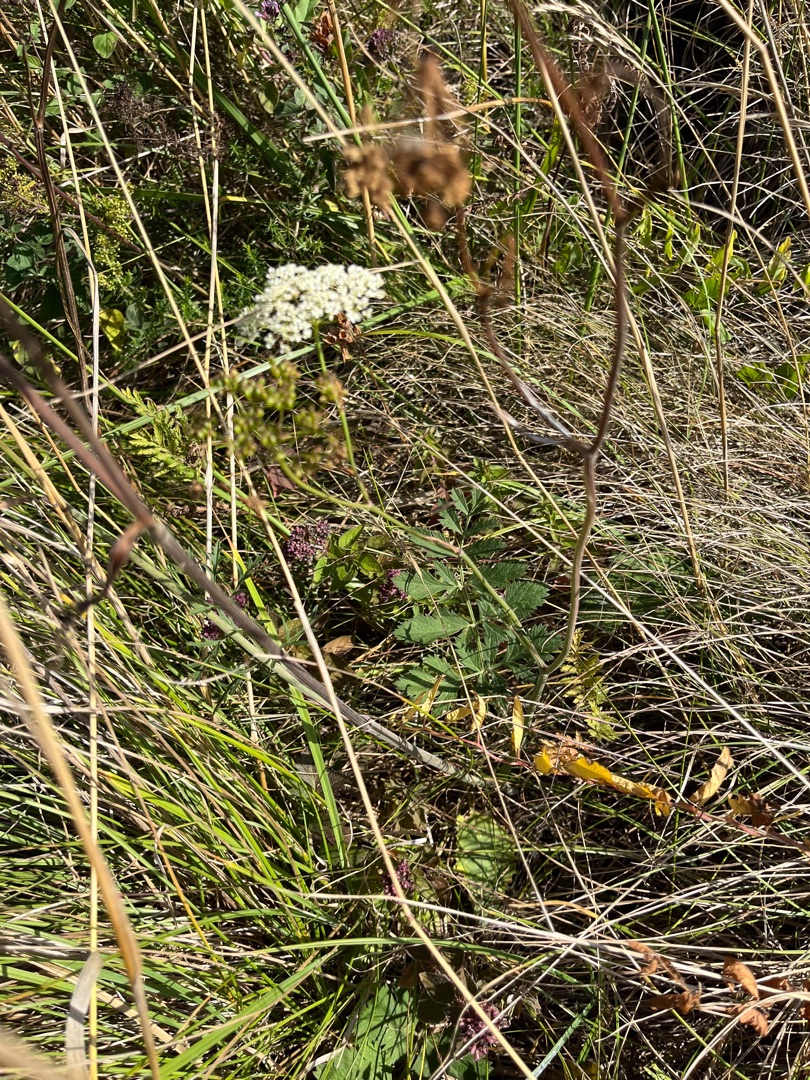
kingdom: Plantae
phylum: Tracheophyta
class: Magnoliopsida
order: Apiales
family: Apiaceae
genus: Pimpinella
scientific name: Pimpinella saxifraga
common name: Almindelig pimpinelle
